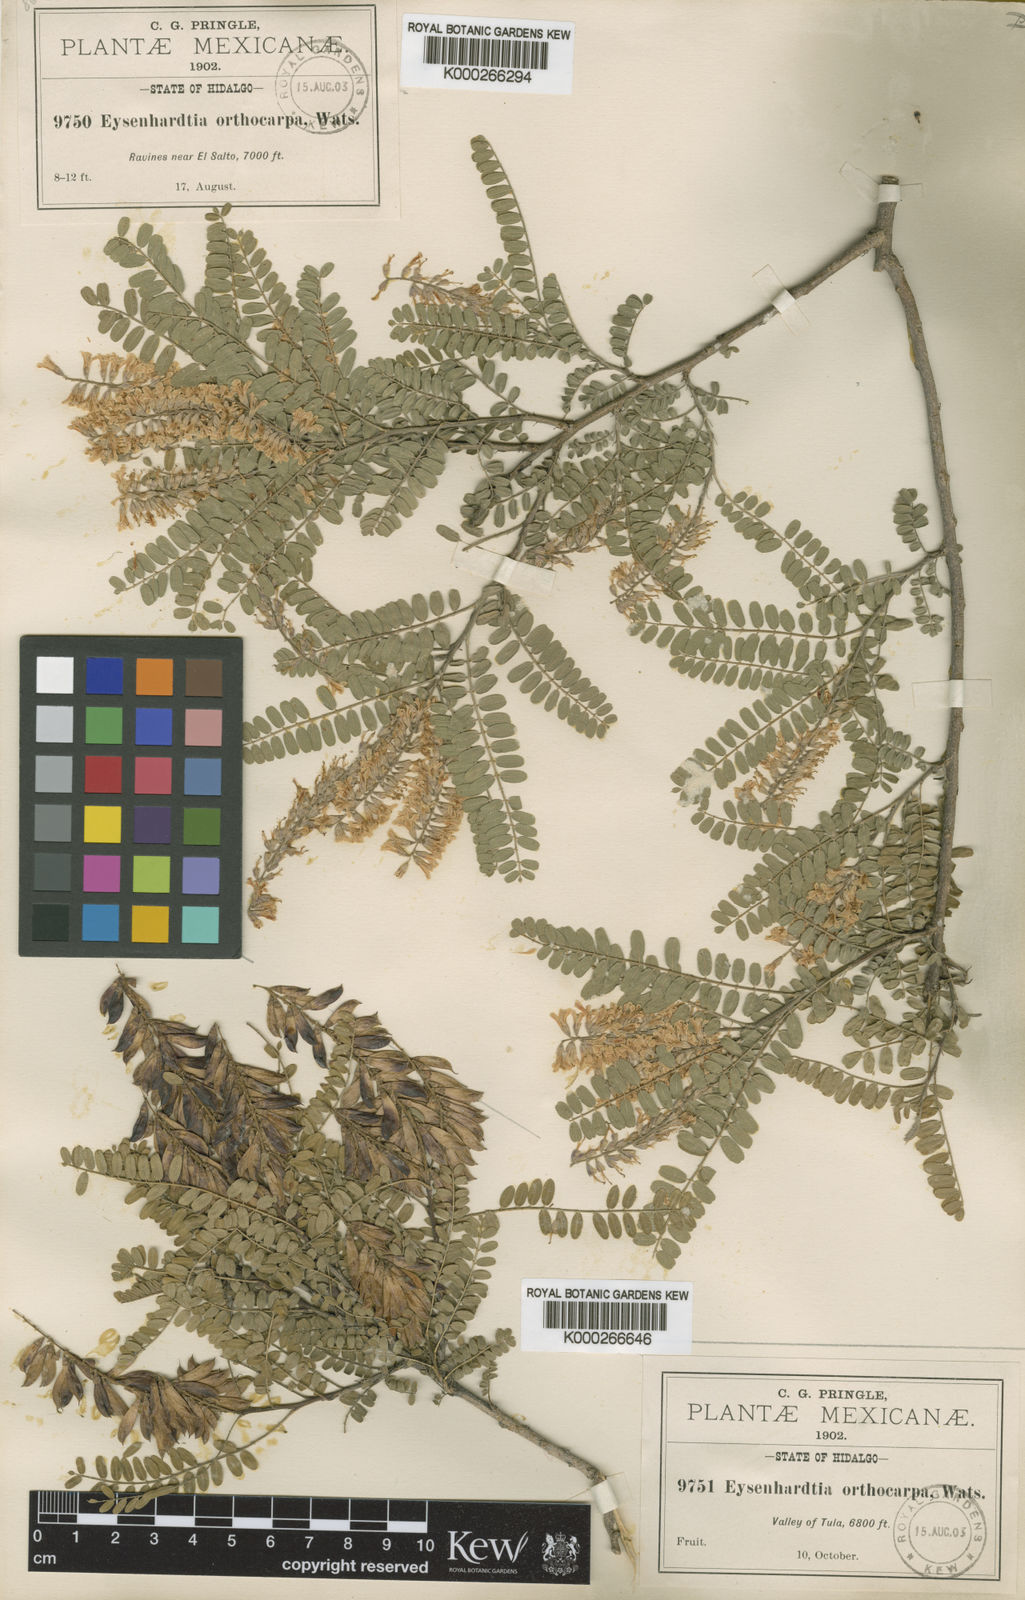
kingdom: Plantae
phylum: Tracheophyta
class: Magnoliopsida
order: Fabales
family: Fabaceae
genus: Eysenhardtia
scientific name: Eysenhardtia polystachya
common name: Kidneywood
